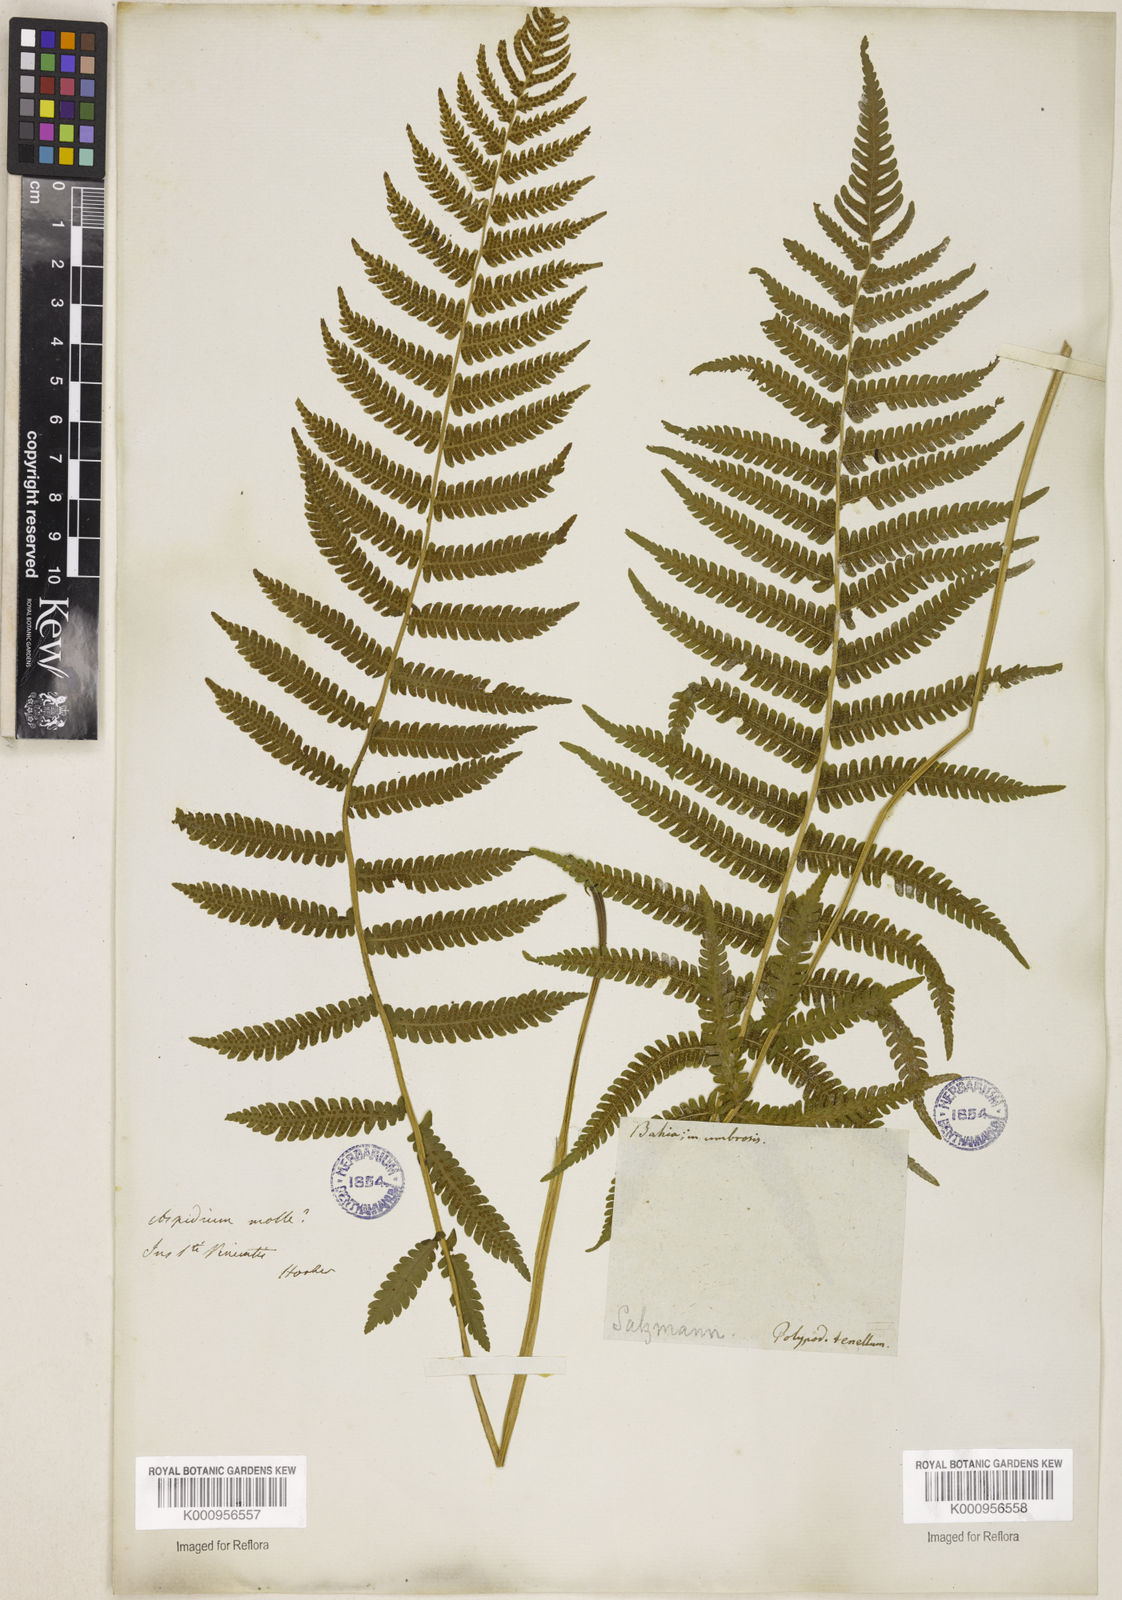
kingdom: Plantae
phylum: Tracheophyta
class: Polypodiopsida
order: Polypodiales
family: Thelypteridaceae
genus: Christella
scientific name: Christella hispidula
